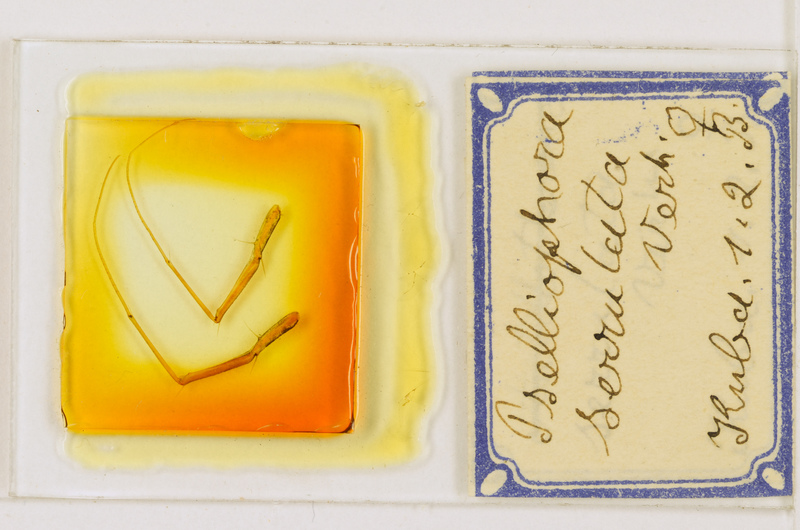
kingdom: Animalia
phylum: Arthropoda
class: Chilopoda
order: Scutigeromorpha
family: Pselliodidae
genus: Sphendononema
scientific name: Sphendononema guildingii
